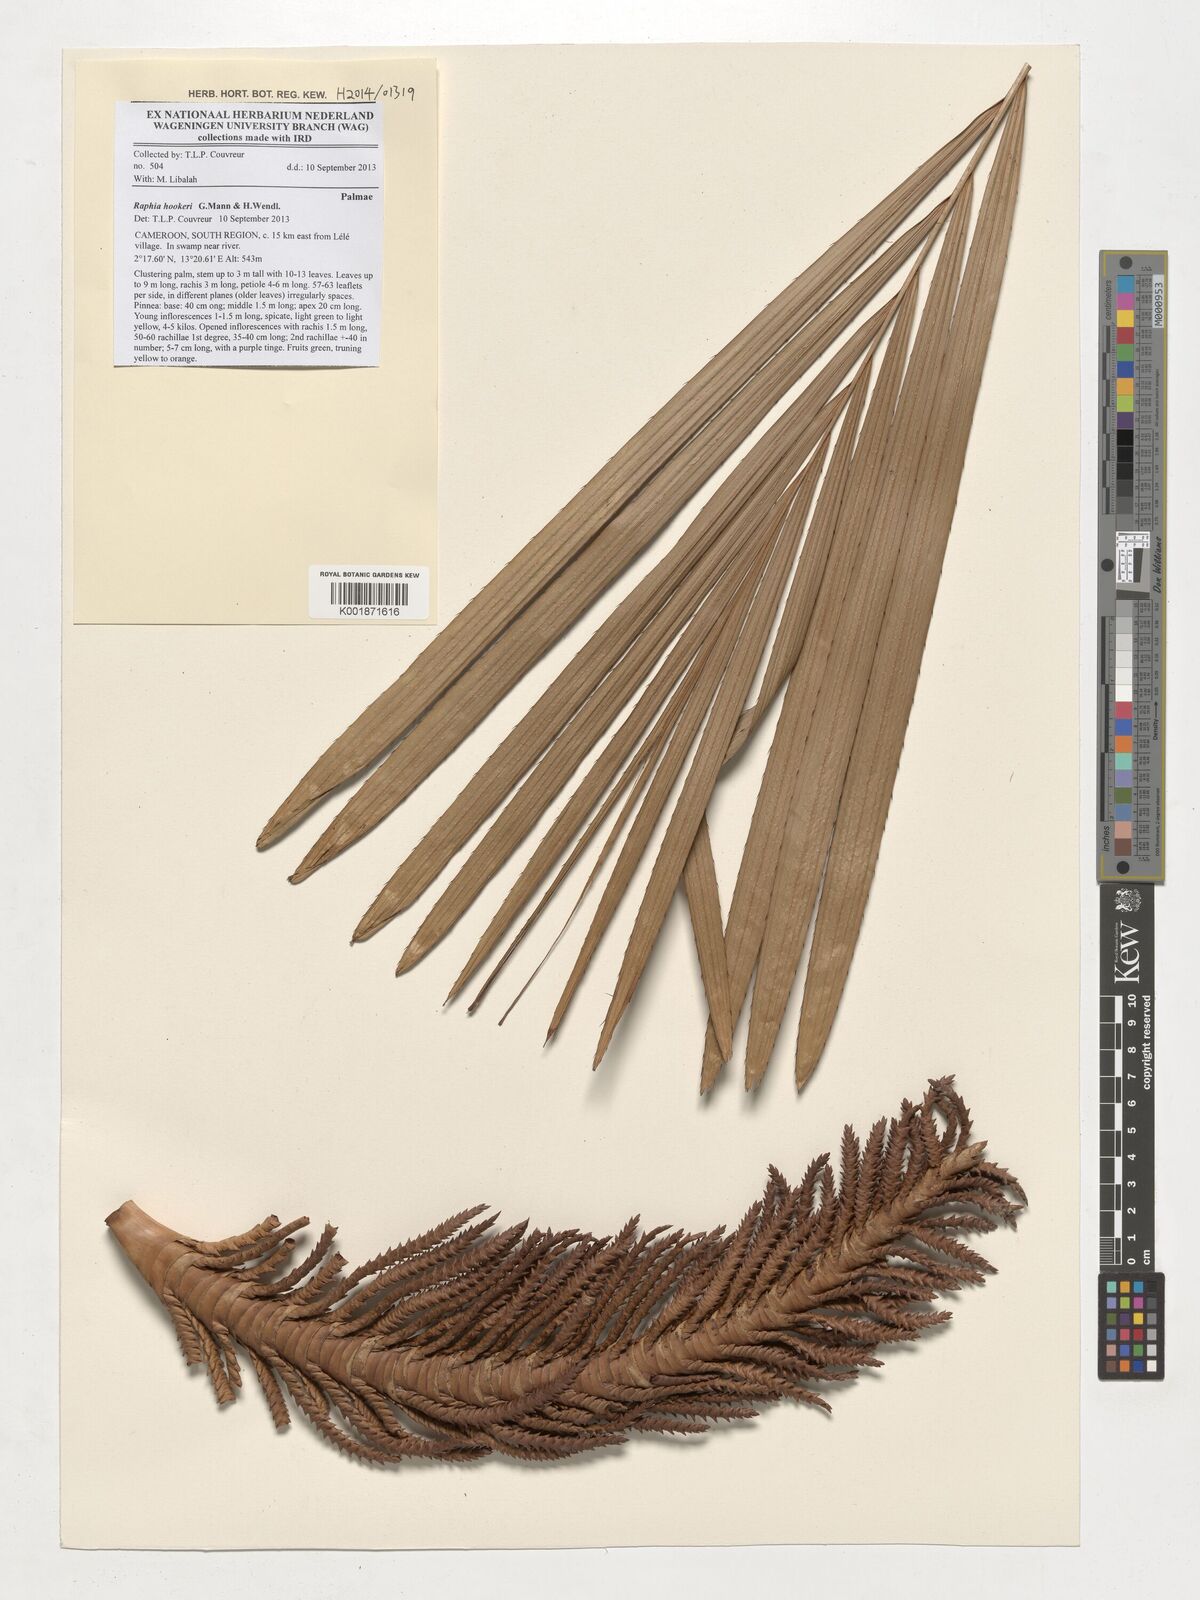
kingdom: Plantae
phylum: Tracheophyta
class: Liliopsida
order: Arecales
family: Arecaceae
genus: Raphia
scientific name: Raphia hookeri
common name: Wine palm
